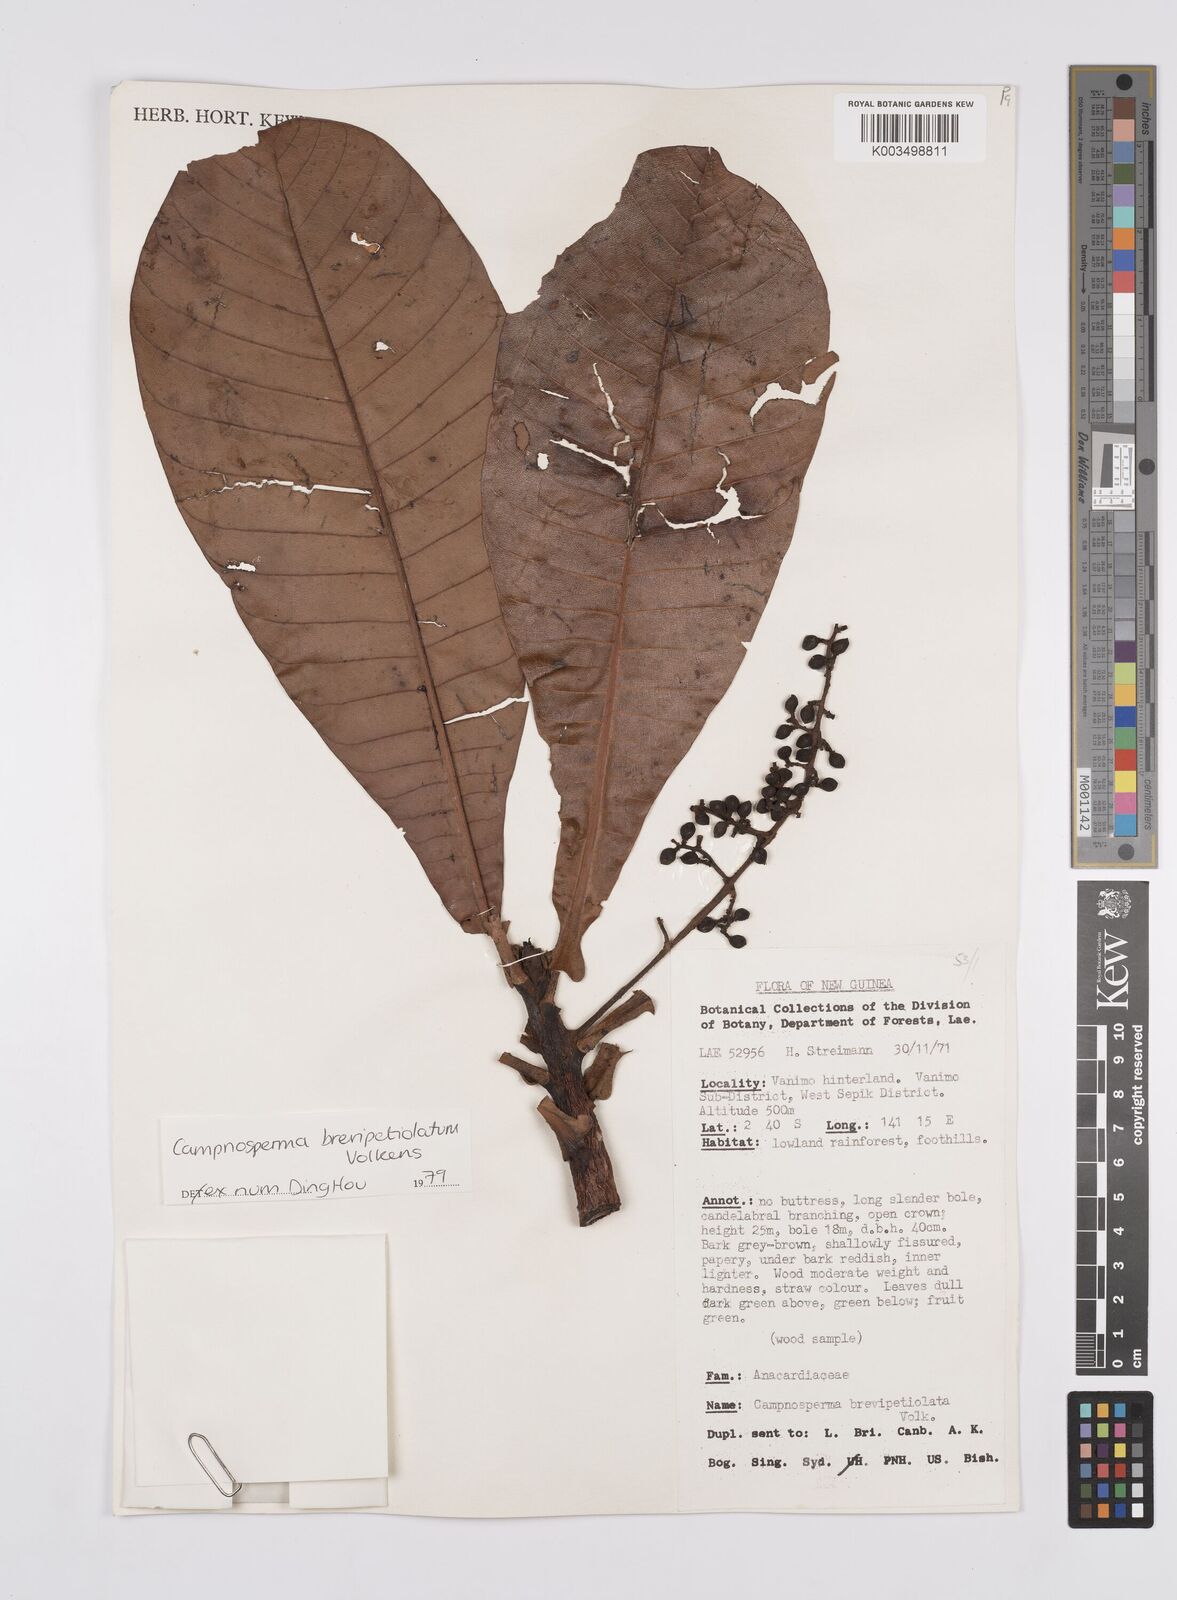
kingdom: Plantae
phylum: Tracheophyta
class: Magnoliopsida
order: Sapindales
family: Anacardiaceae
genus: Campnosperma
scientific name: Campnosperma brevipetiolatum
